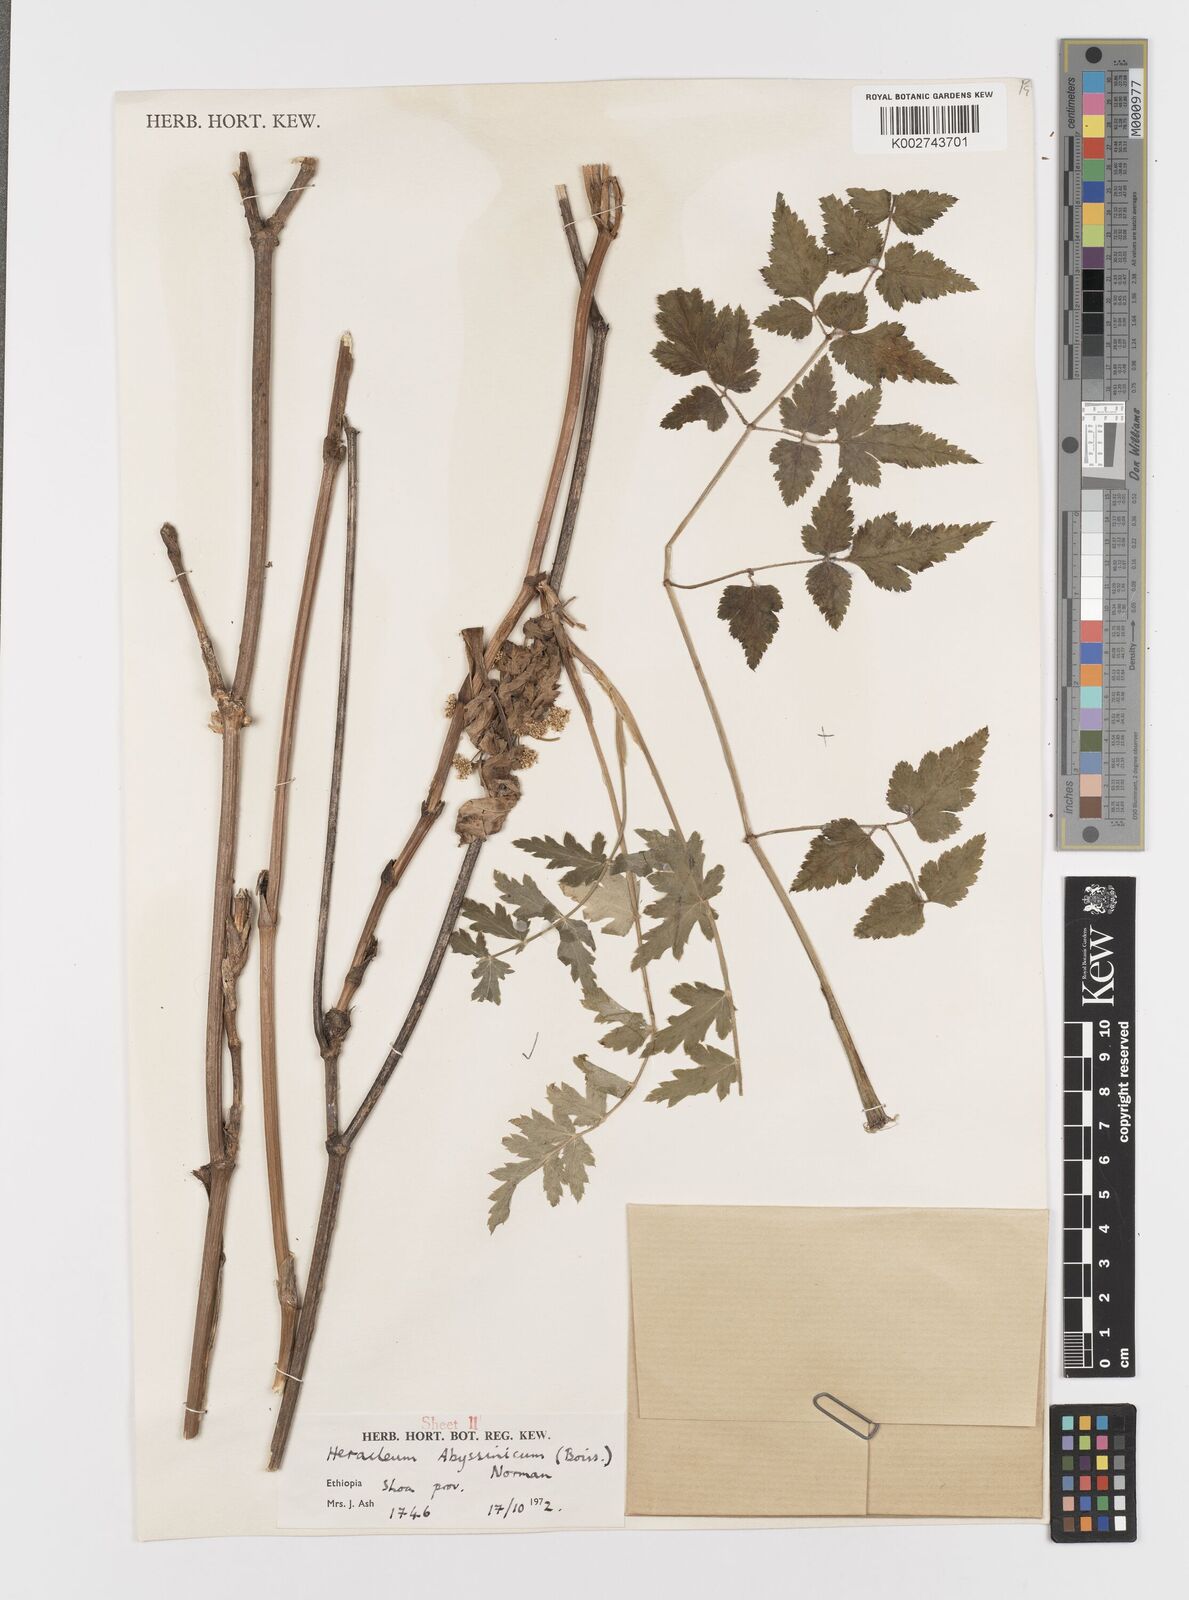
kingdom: Plantae
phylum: Tracheophyta
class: Magnoliopsida
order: Apiales
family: Apiaceae
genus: Heracleum
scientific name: Heracleum abyssinicum
